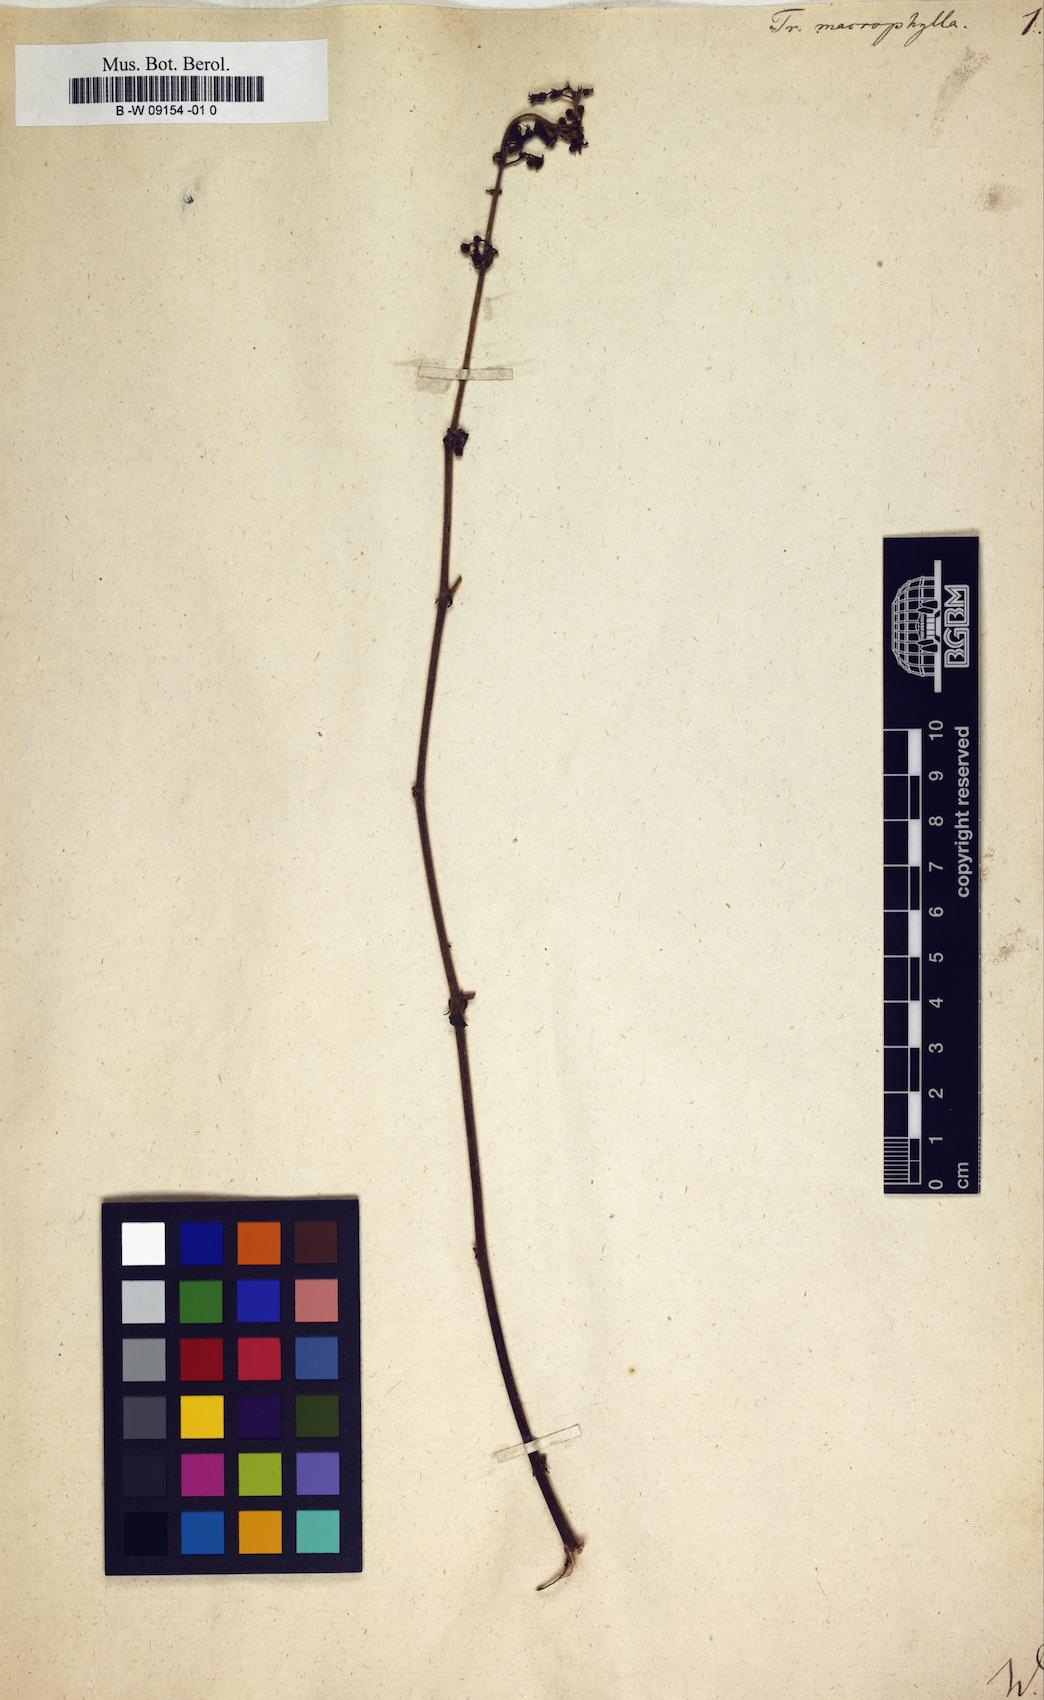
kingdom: Plantae
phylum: Tracheophyta
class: Magnoliopsida
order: Malvales
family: Malvaceae
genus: Triumfetta
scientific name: Triumfetta
